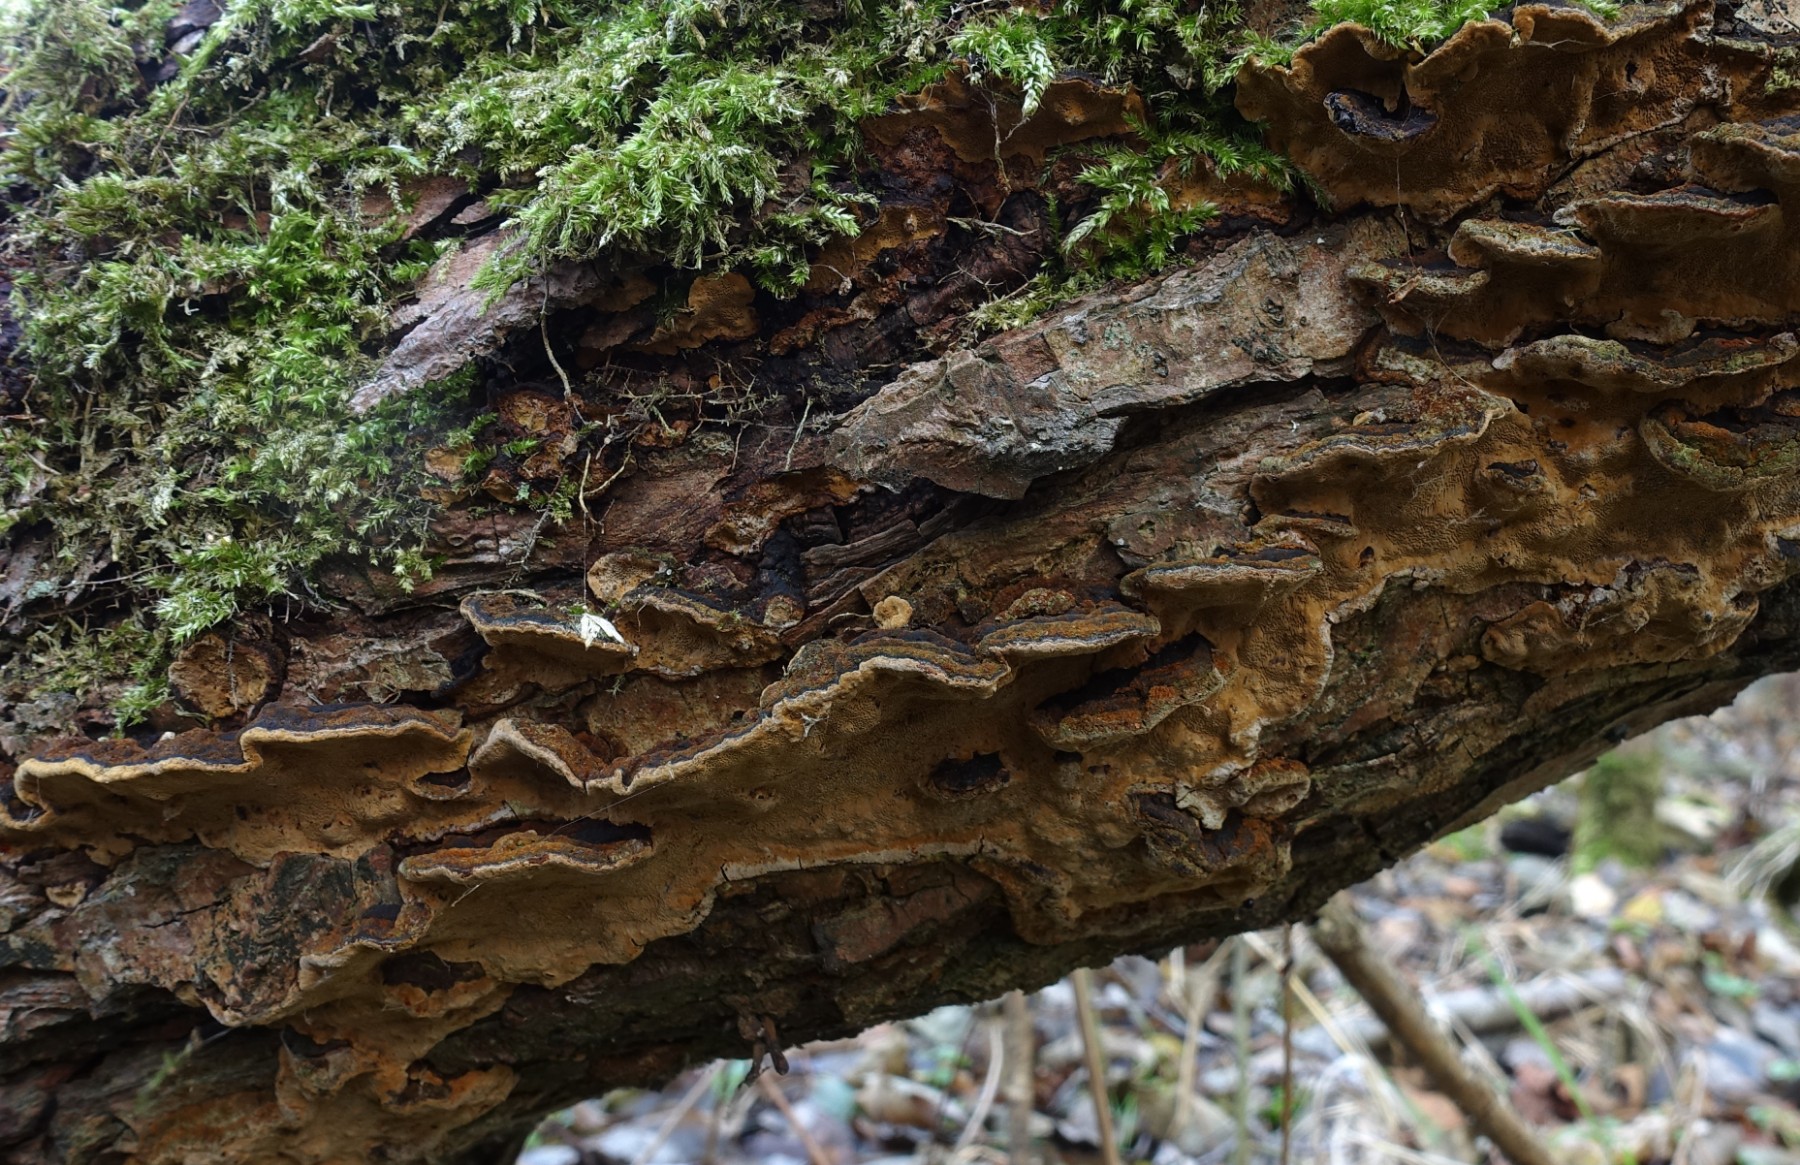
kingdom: Fungi
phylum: Basidiomycota
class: Agaricomycetes
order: Hymenochaetales
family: Hymenochaetaceae
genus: Phellinopsis
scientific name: Phellinopsis conchata
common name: pile-ildporesvamp
